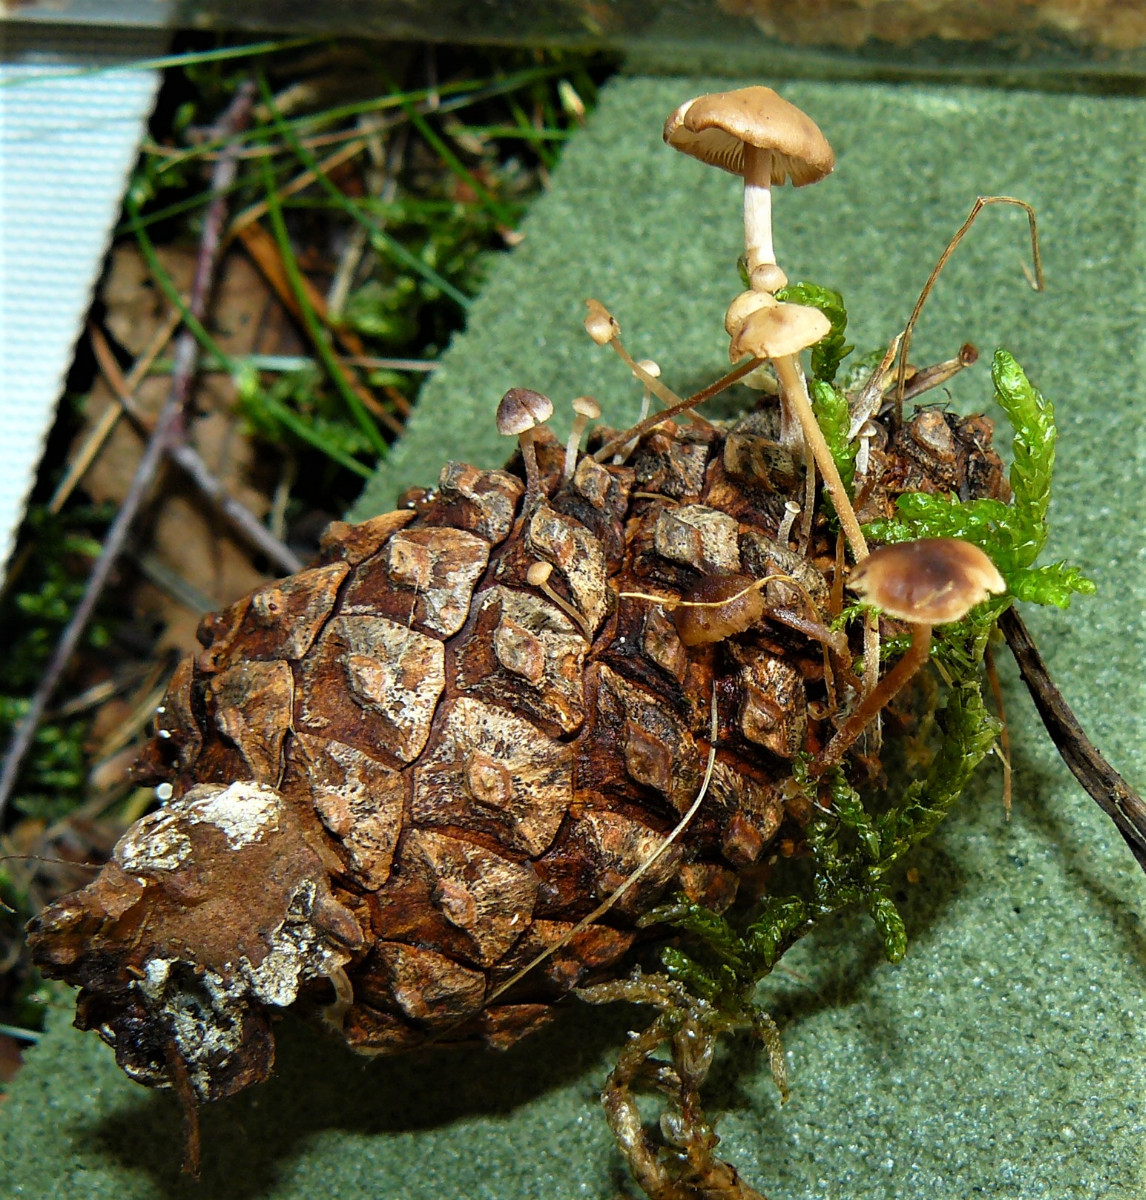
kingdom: Fungi
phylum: Basidiomycota
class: Agaricomycetes
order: Agaricales
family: Marasmiaceae
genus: Baeospora
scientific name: Baeospora myosura
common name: koglebruskhat
